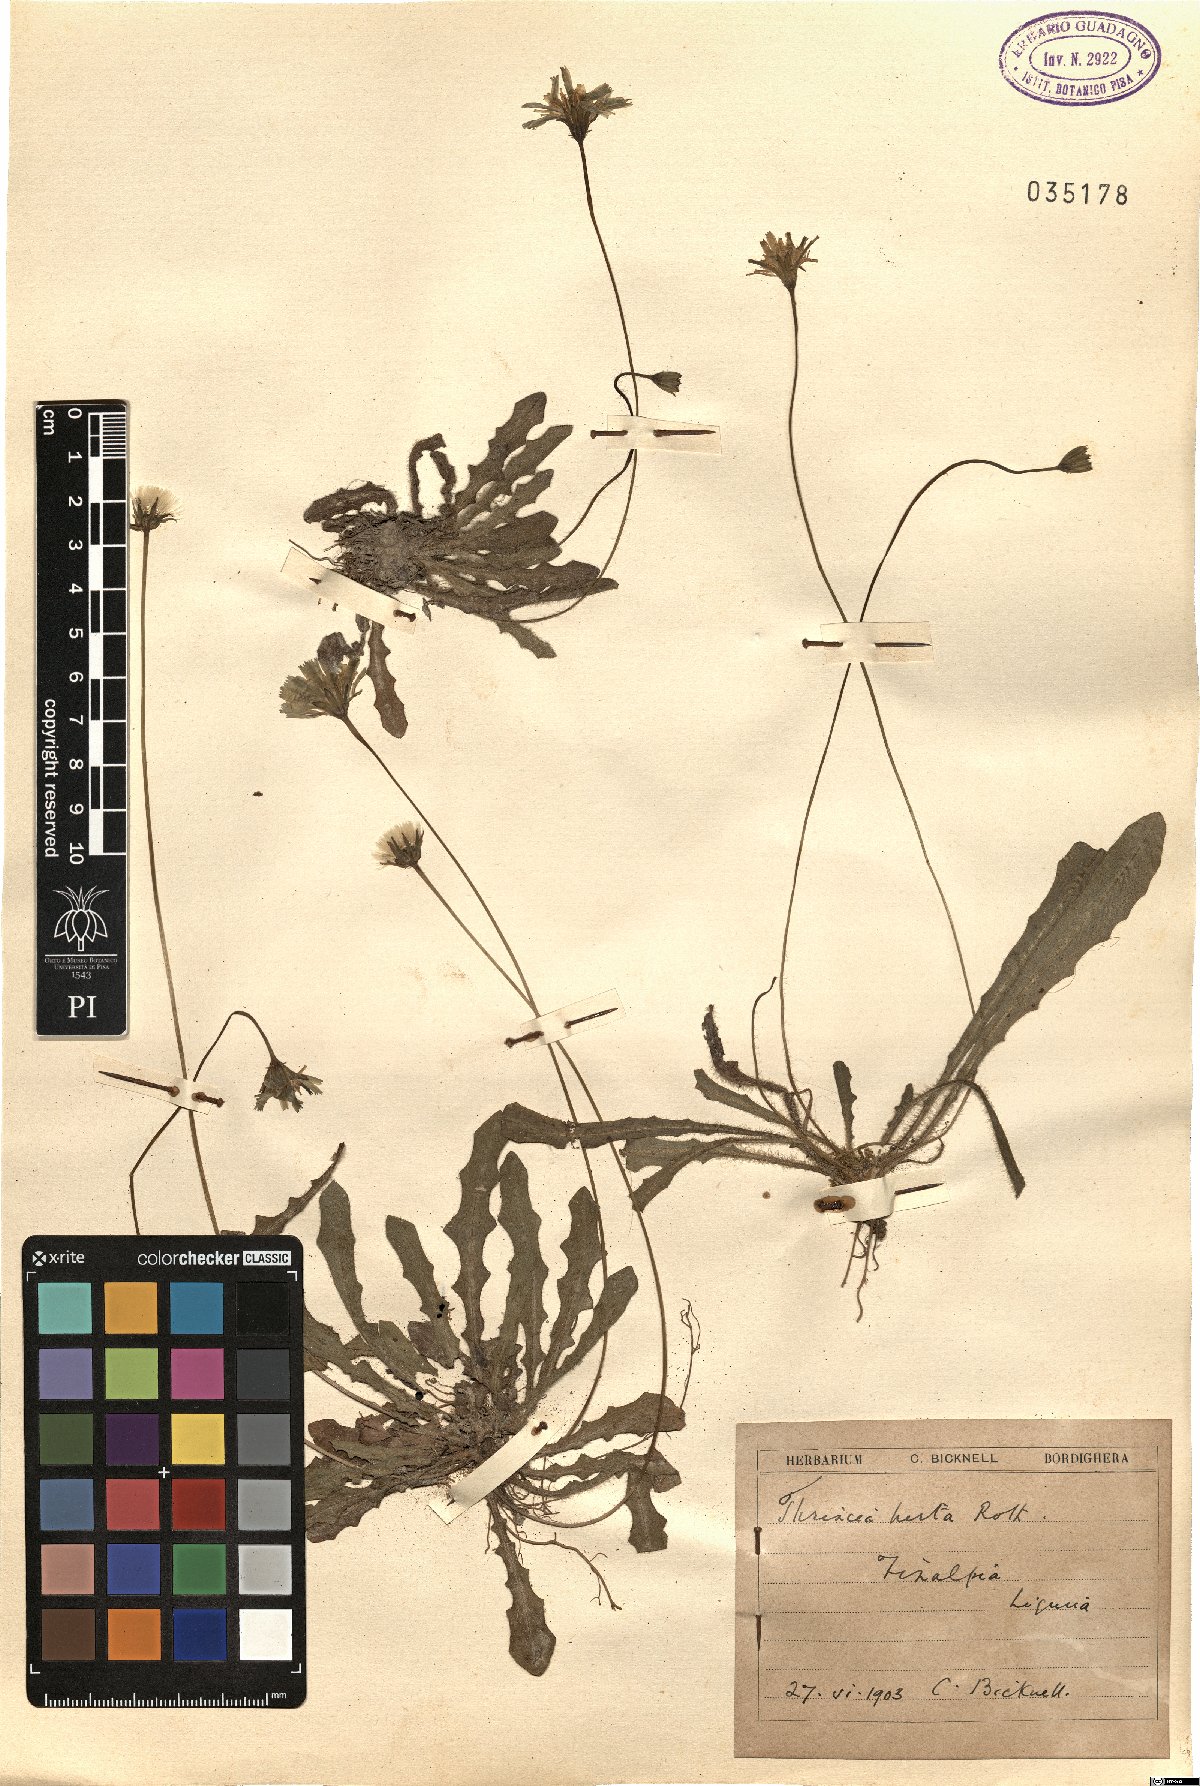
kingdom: Plantae
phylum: Tracheophyta
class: Magnoliopsida
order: Asterales
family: Asteraceae
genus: Thrincia
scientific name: Thrincia saxatilis
